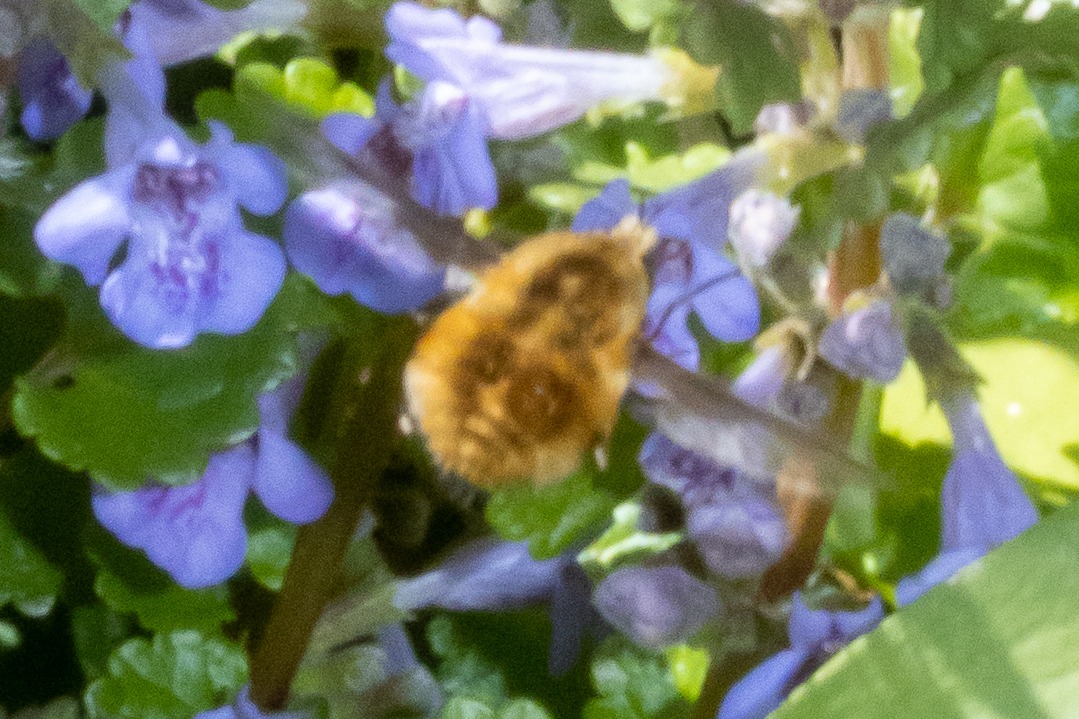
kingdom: Animalia
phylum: Arthropoda
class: Insecta
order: Diptera
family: Bombyliidae
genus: Bombylius
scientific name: Bombylius major
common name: Stor humleflue
